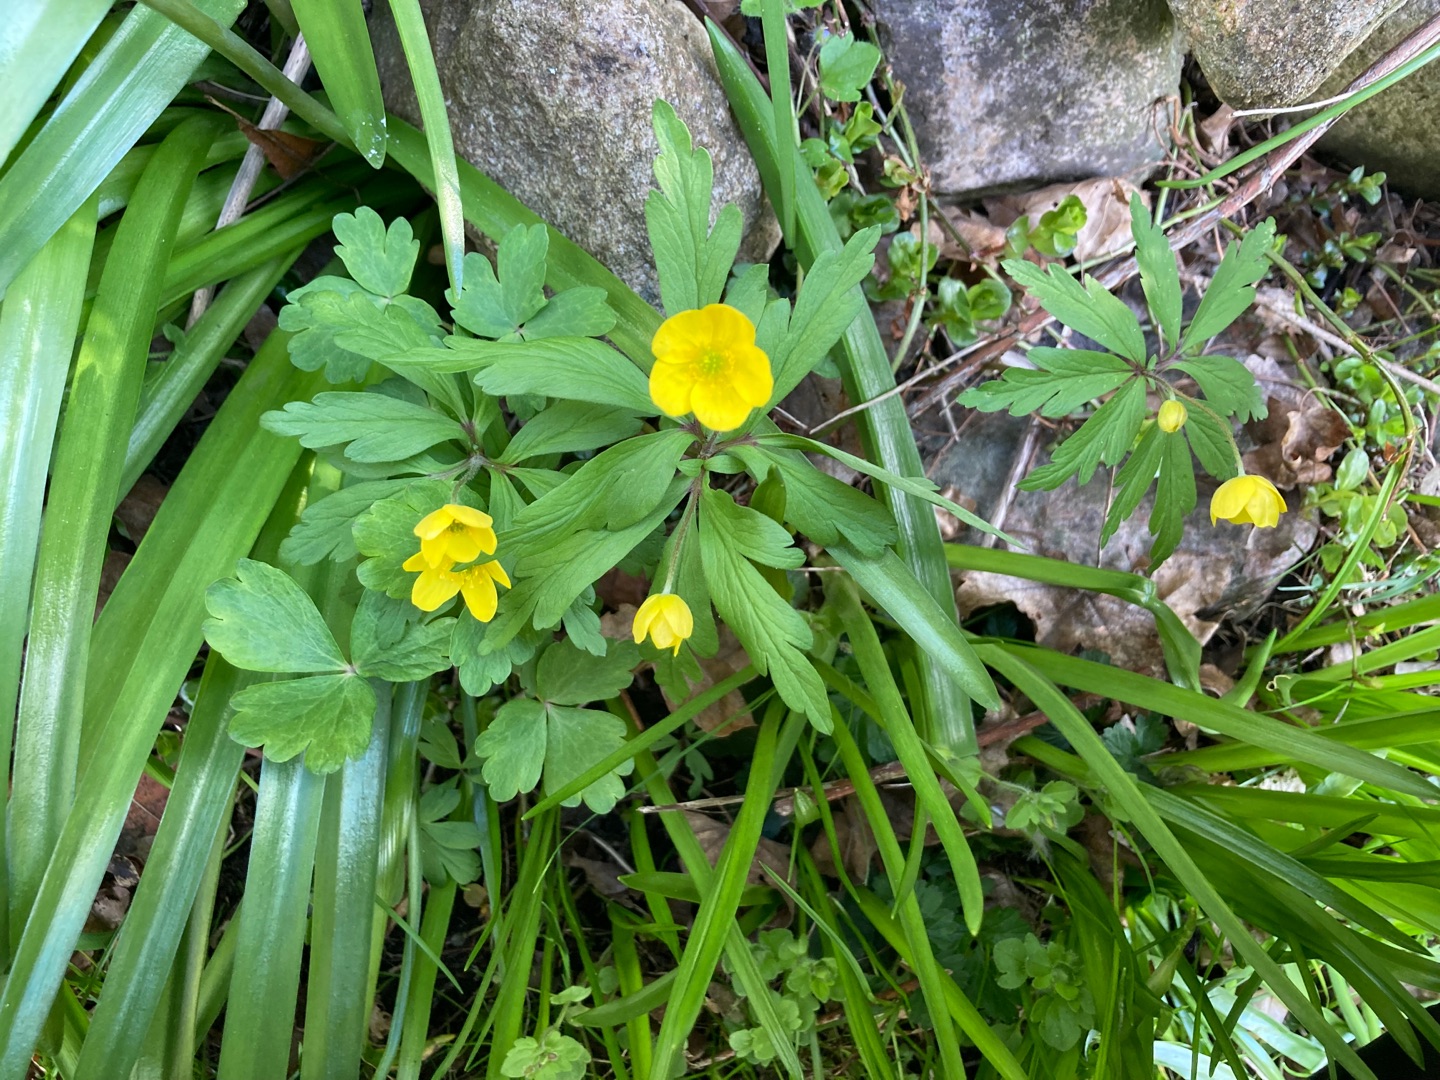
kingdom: Plantae
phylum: Tracheophyta
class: Magnoliopsida
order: Ranunculales
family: Ranunculaceae
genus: Anemone
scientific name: Anemone ranunculoides
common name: Gul anemone
